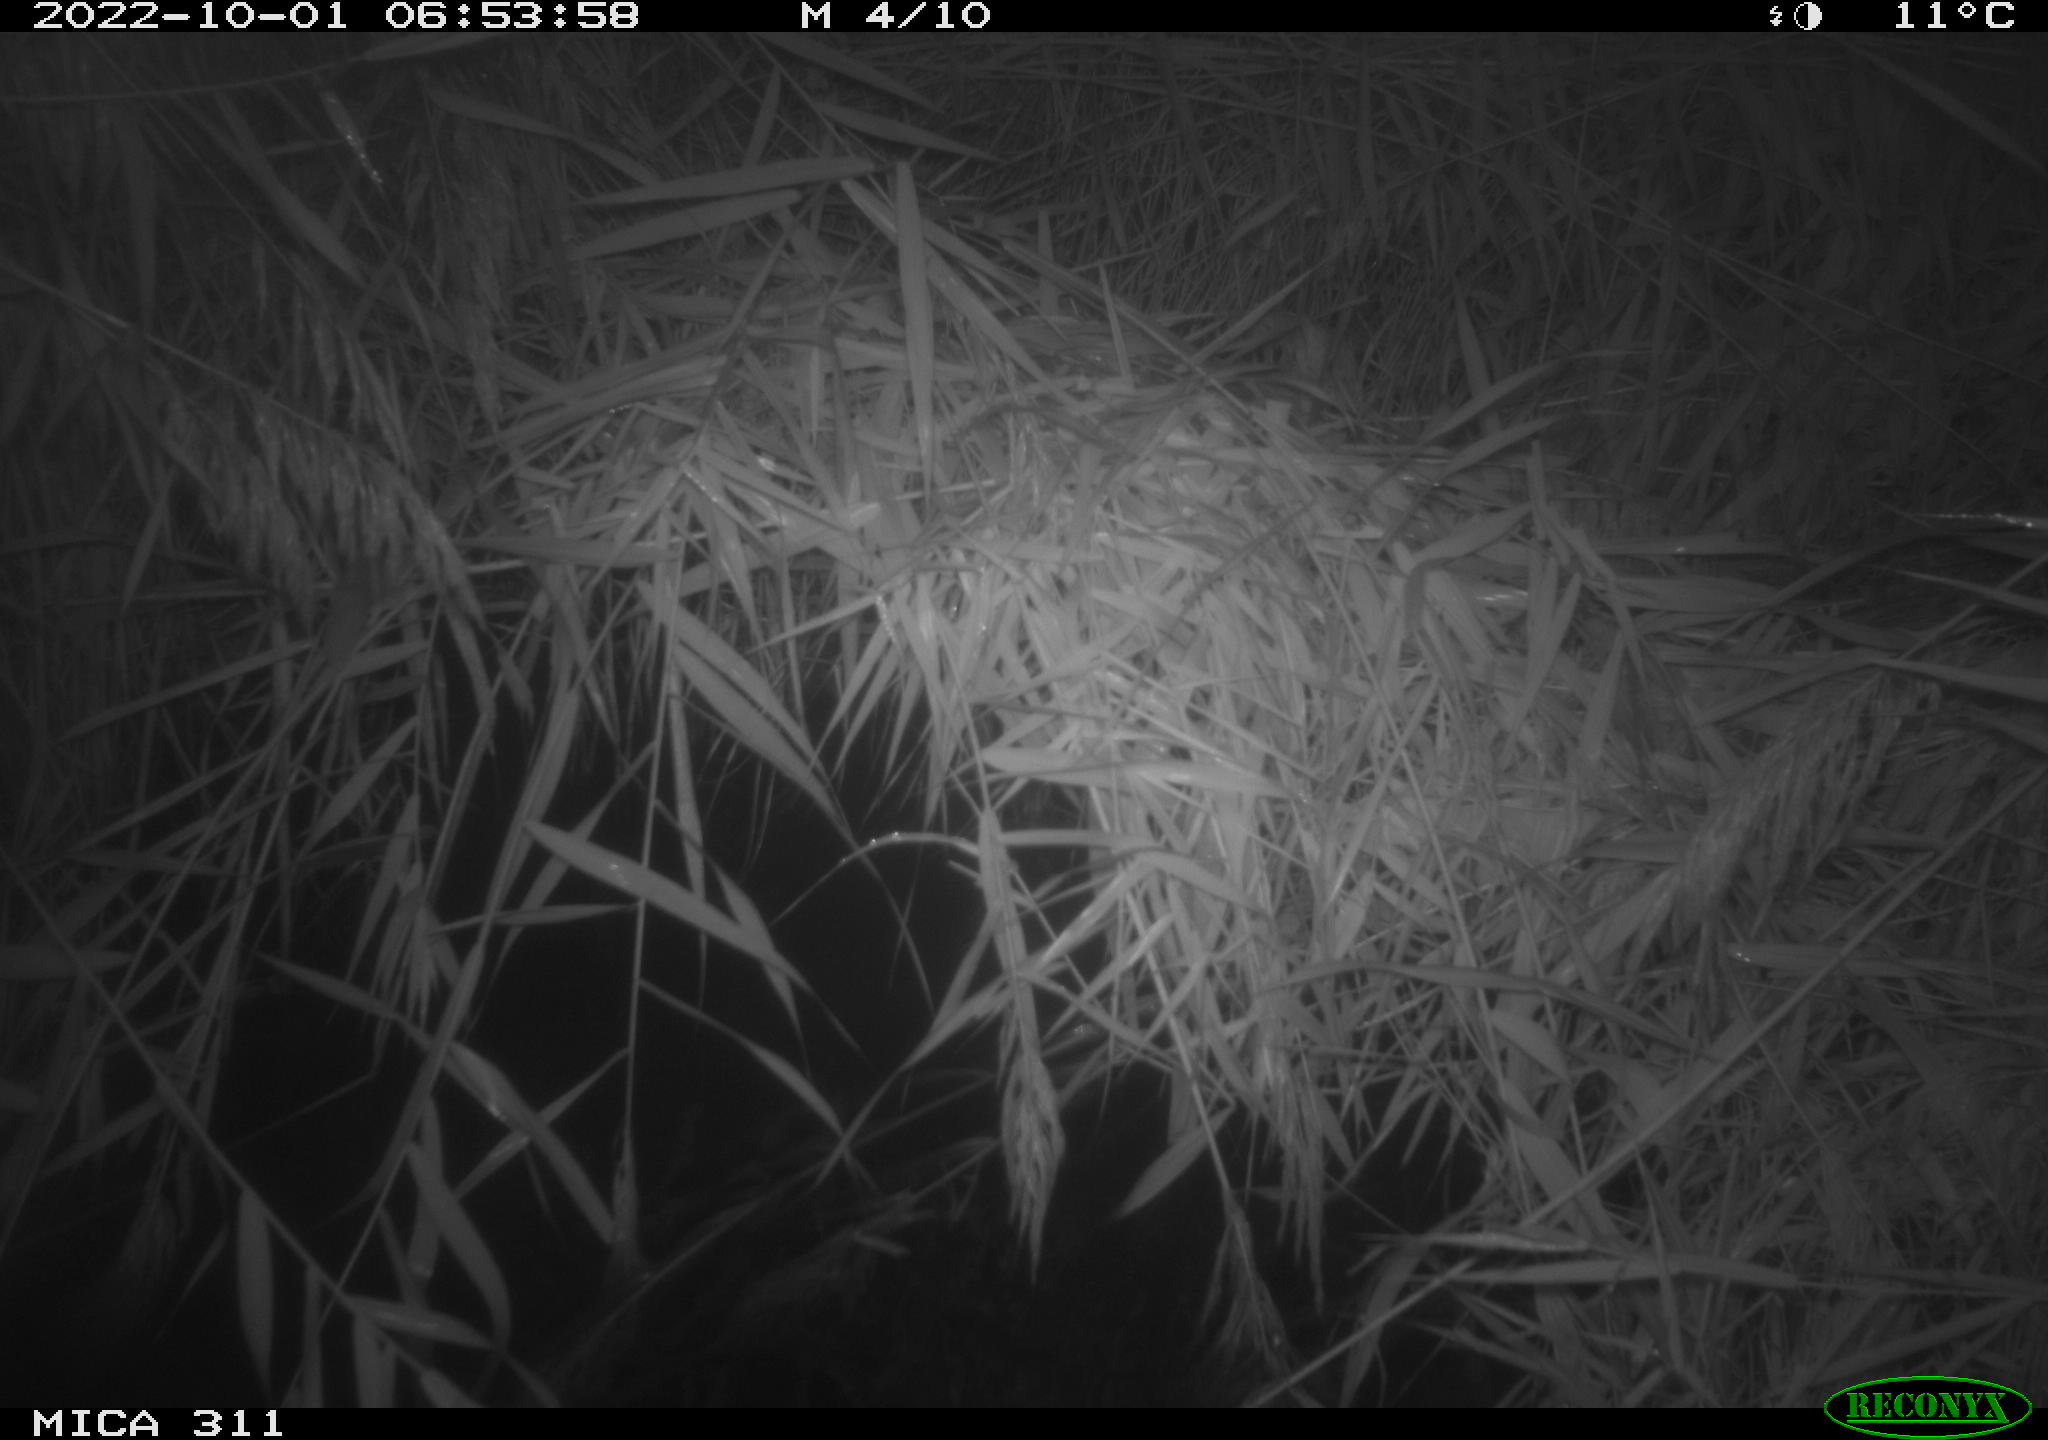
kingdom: Animalia
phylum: Chordata
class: Mammalia
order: Rodentia
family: Muridae
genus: Rattus
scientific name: Rattus norvegicus
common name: Brown rat
